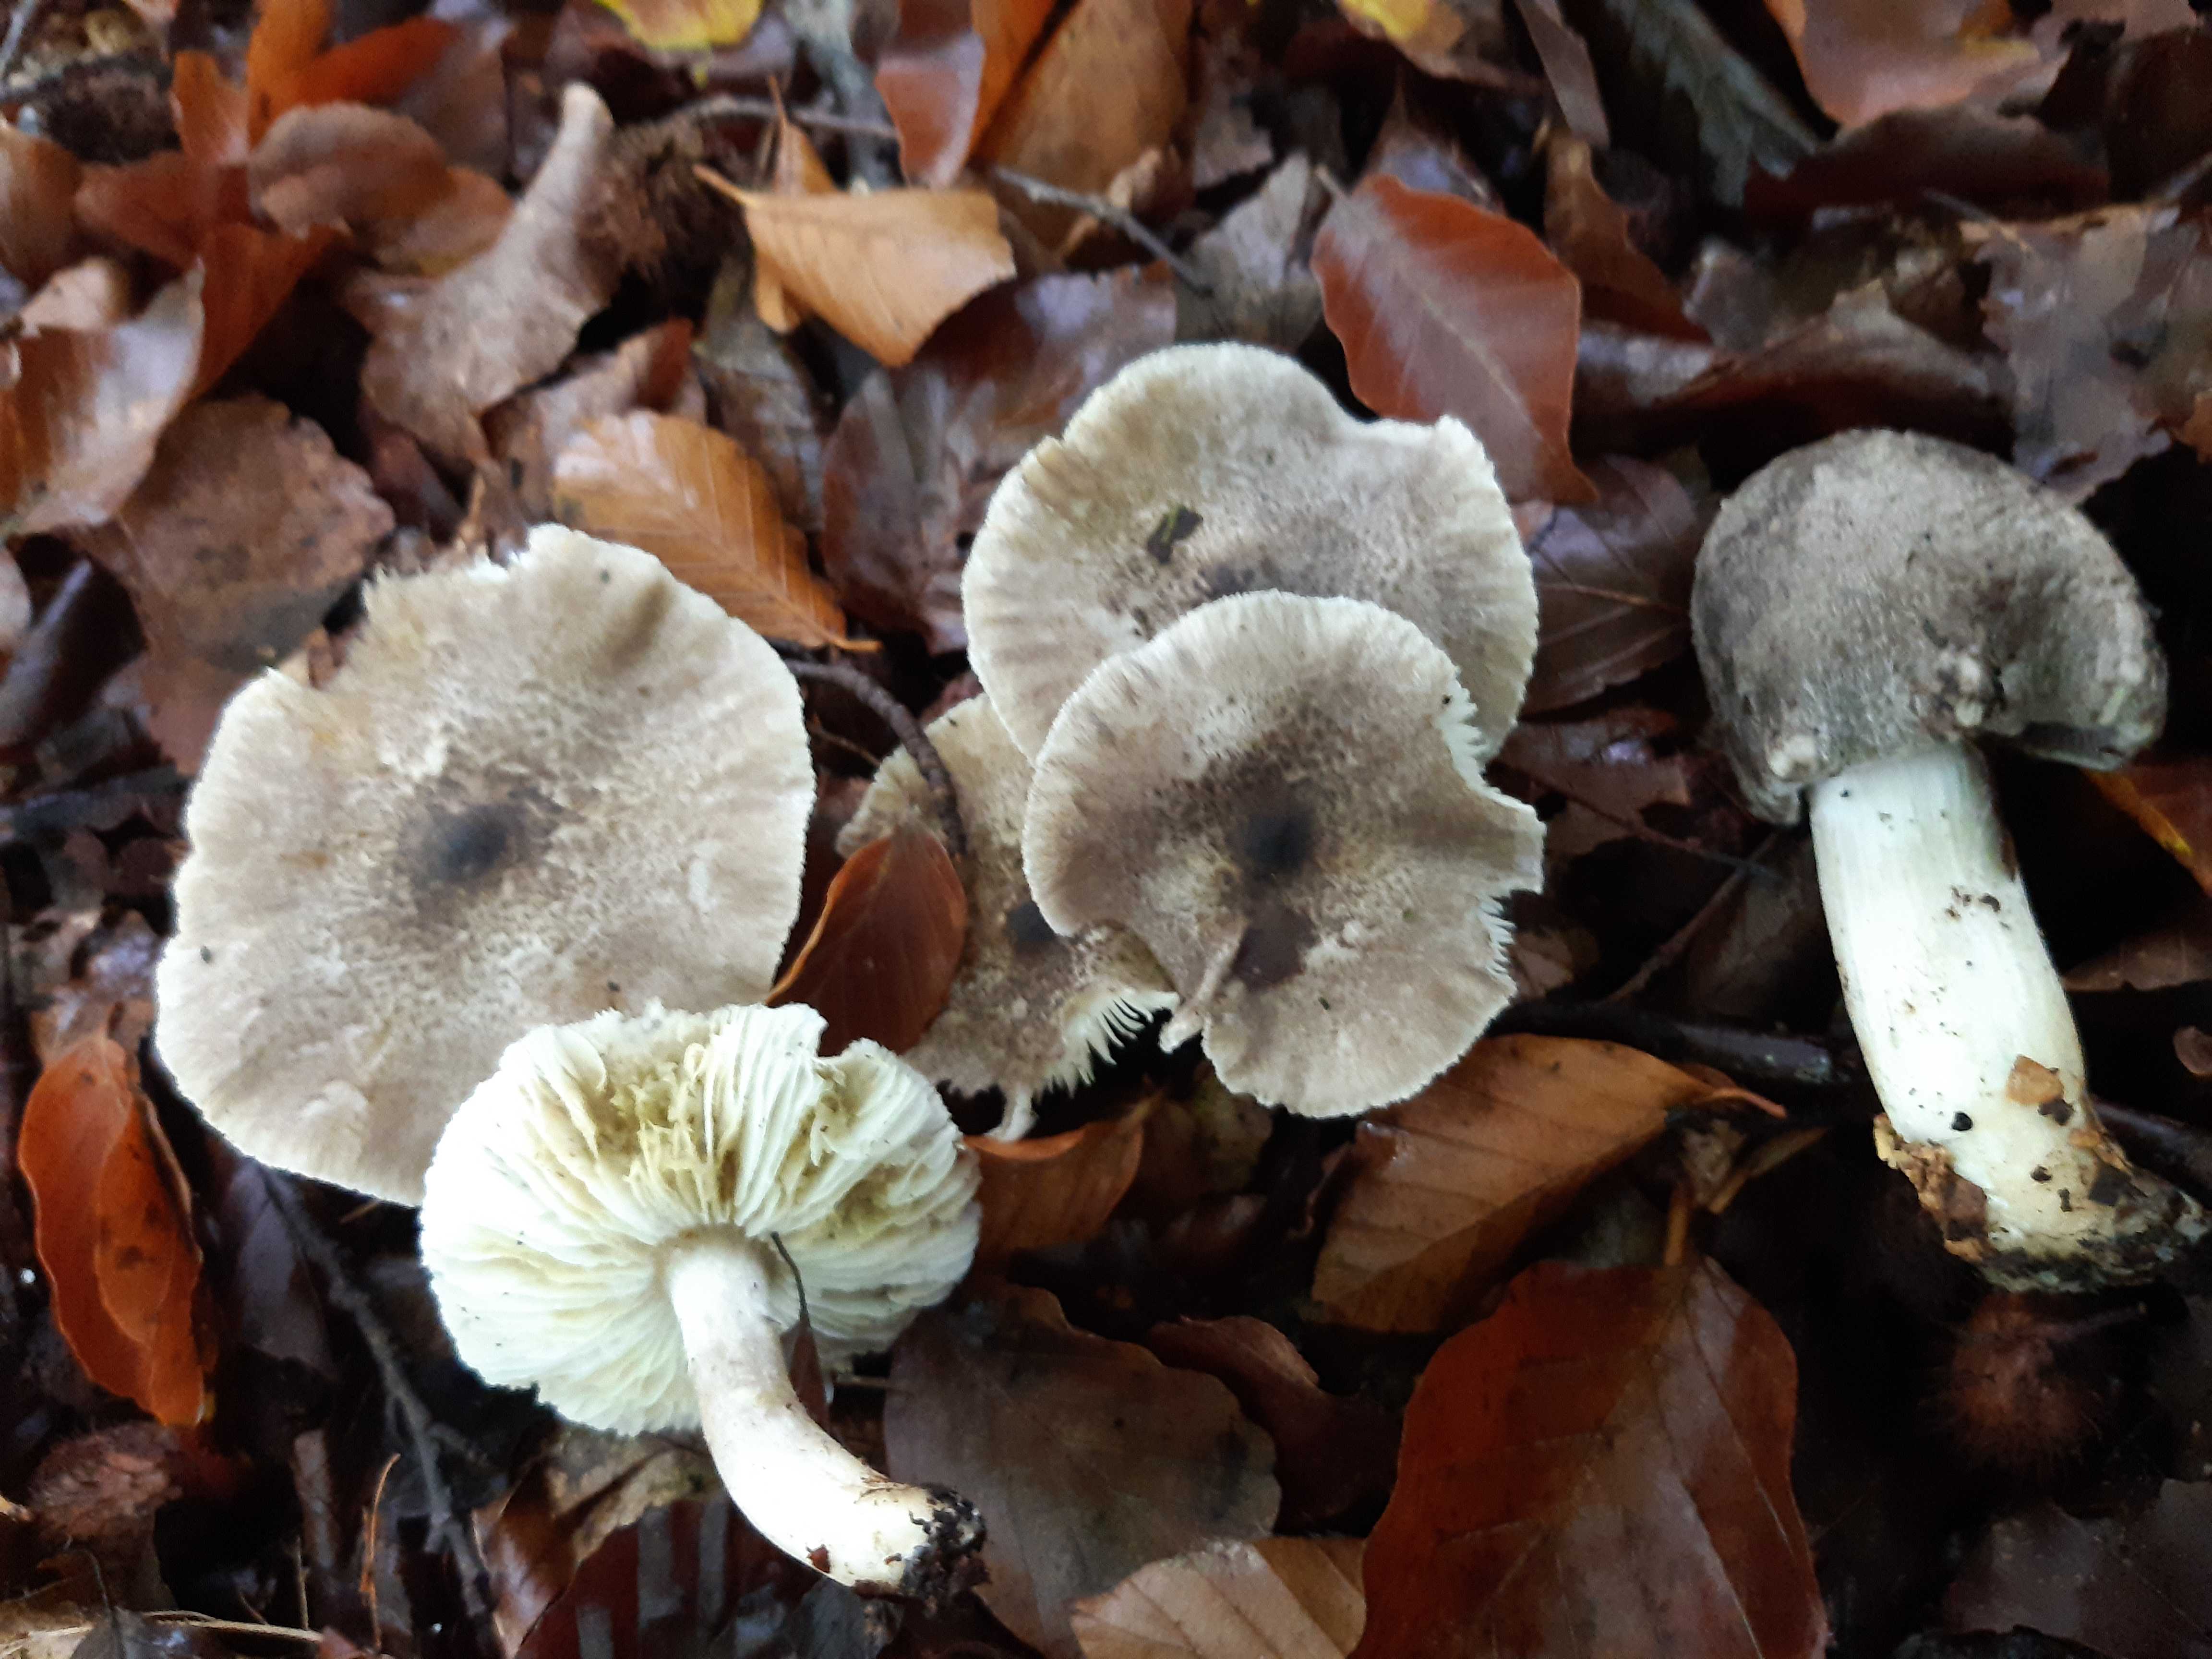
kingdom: Fungi
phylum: Basidiomycota
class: Agaricomycetes
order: Agaricales
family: Tricholomataceae
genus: Tricholoma
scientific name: Tricholoma scalpturatum
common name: gulplettet ridderhat
